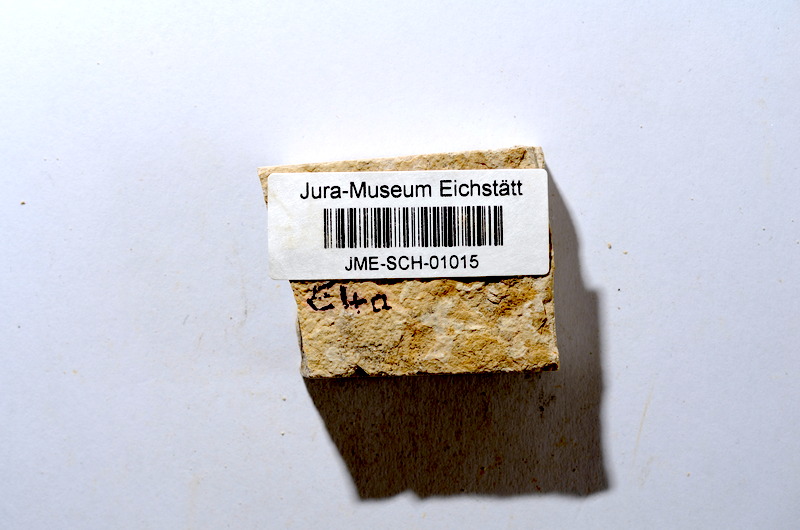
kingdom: Animalia
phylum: Chordata
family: Ascalaboidae
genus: Tharsis
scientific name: Tharsis dubius
